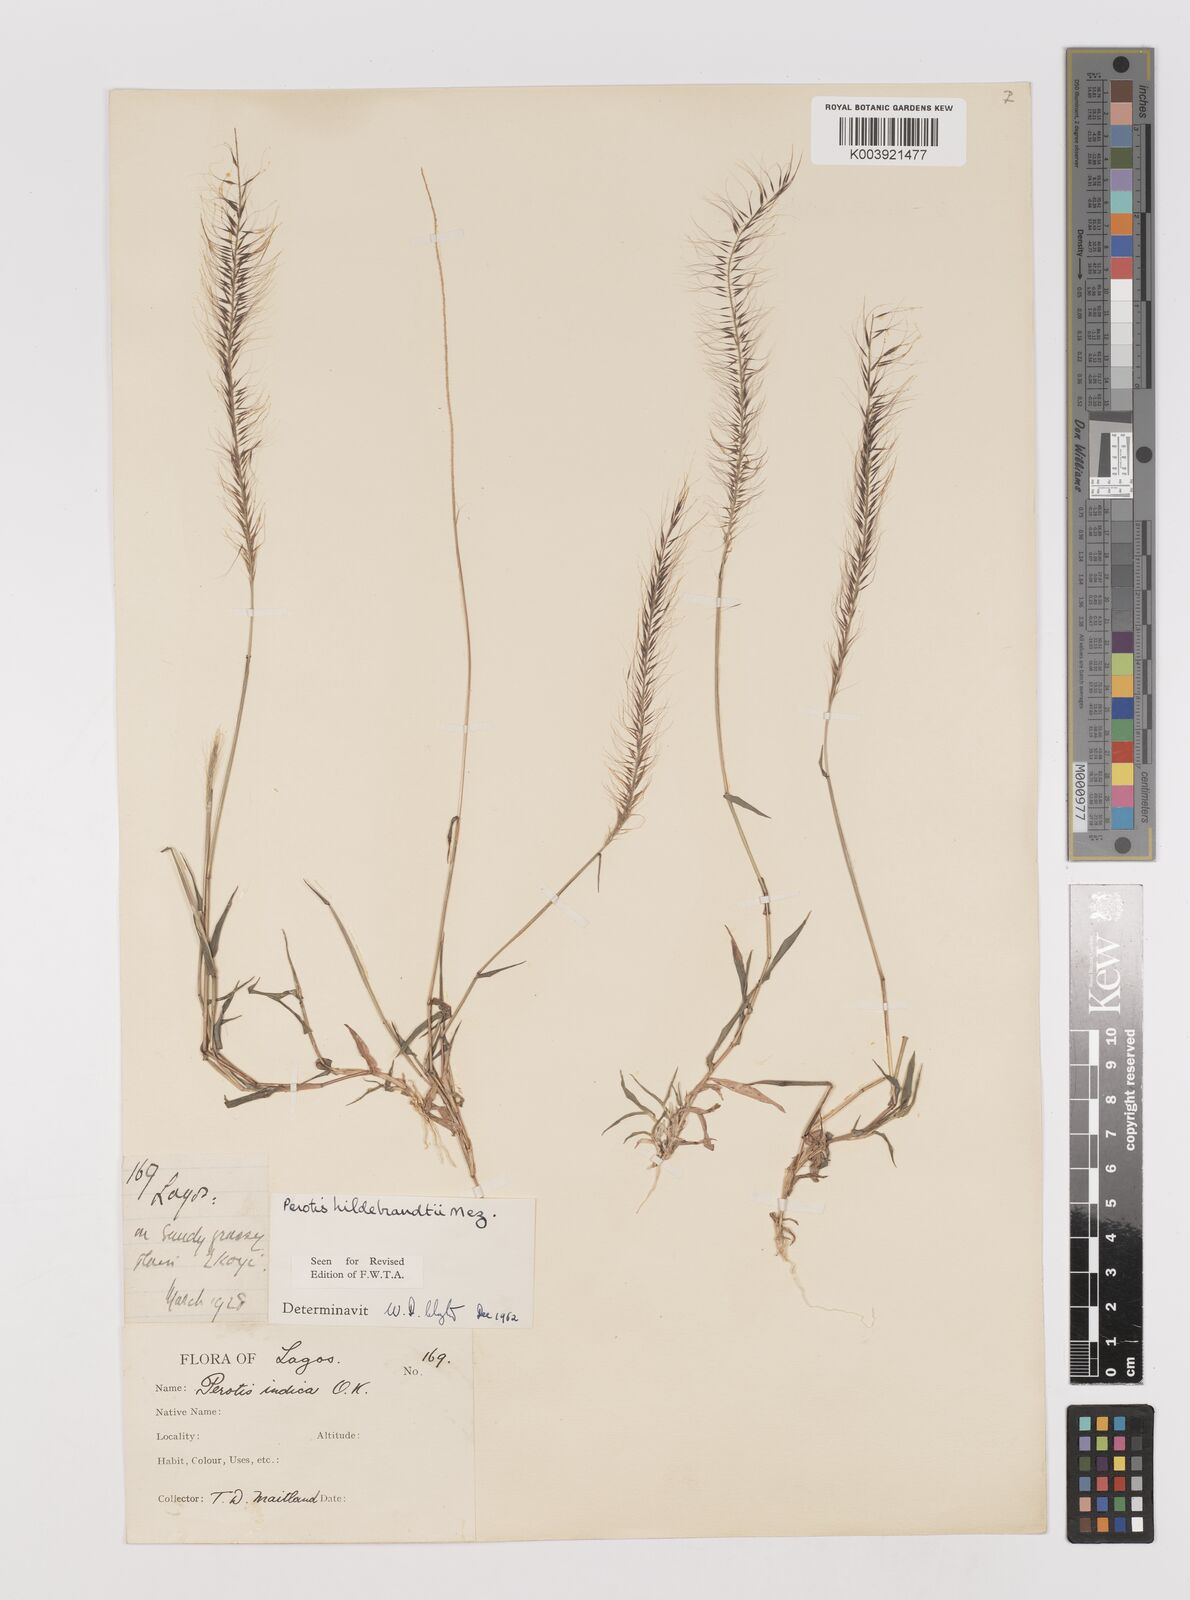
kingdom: Plantae
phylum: Tracheophyta
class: Liliopsida
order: Poales
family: Poaceae
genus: Perotis
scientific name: Perotis hildebrandtii
